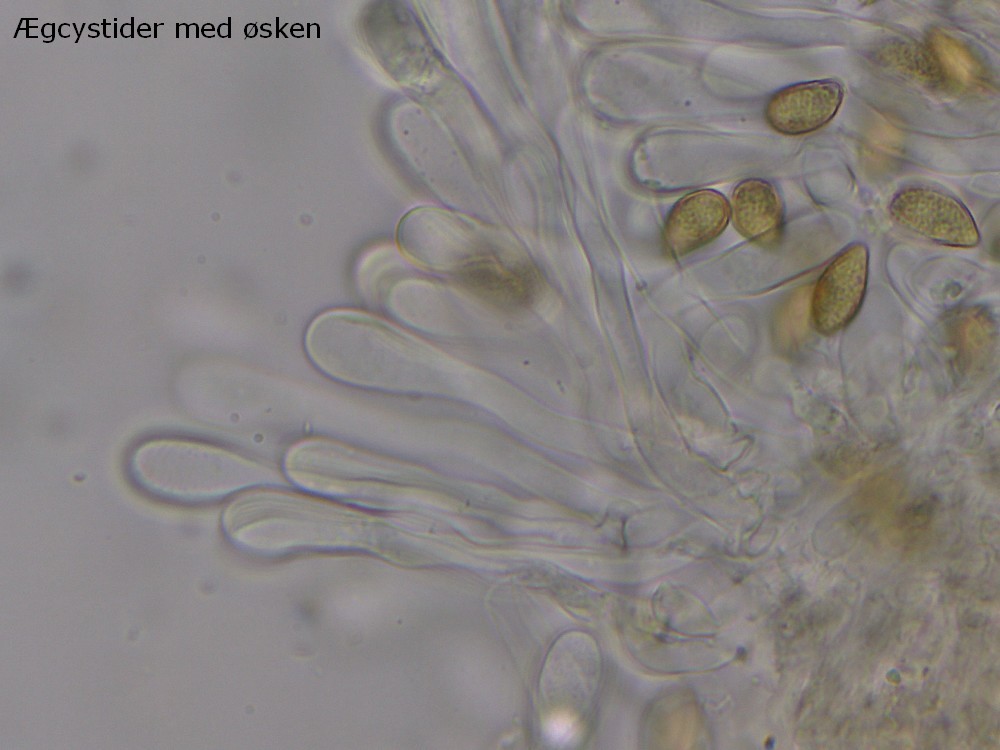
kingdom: Fungi
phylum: Basidiomycota
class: Agaricomycetes
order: Agaricales
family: Hymenogastraceae
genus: Hebeloma
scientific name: Hebeloma album
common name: skør tåreblad
